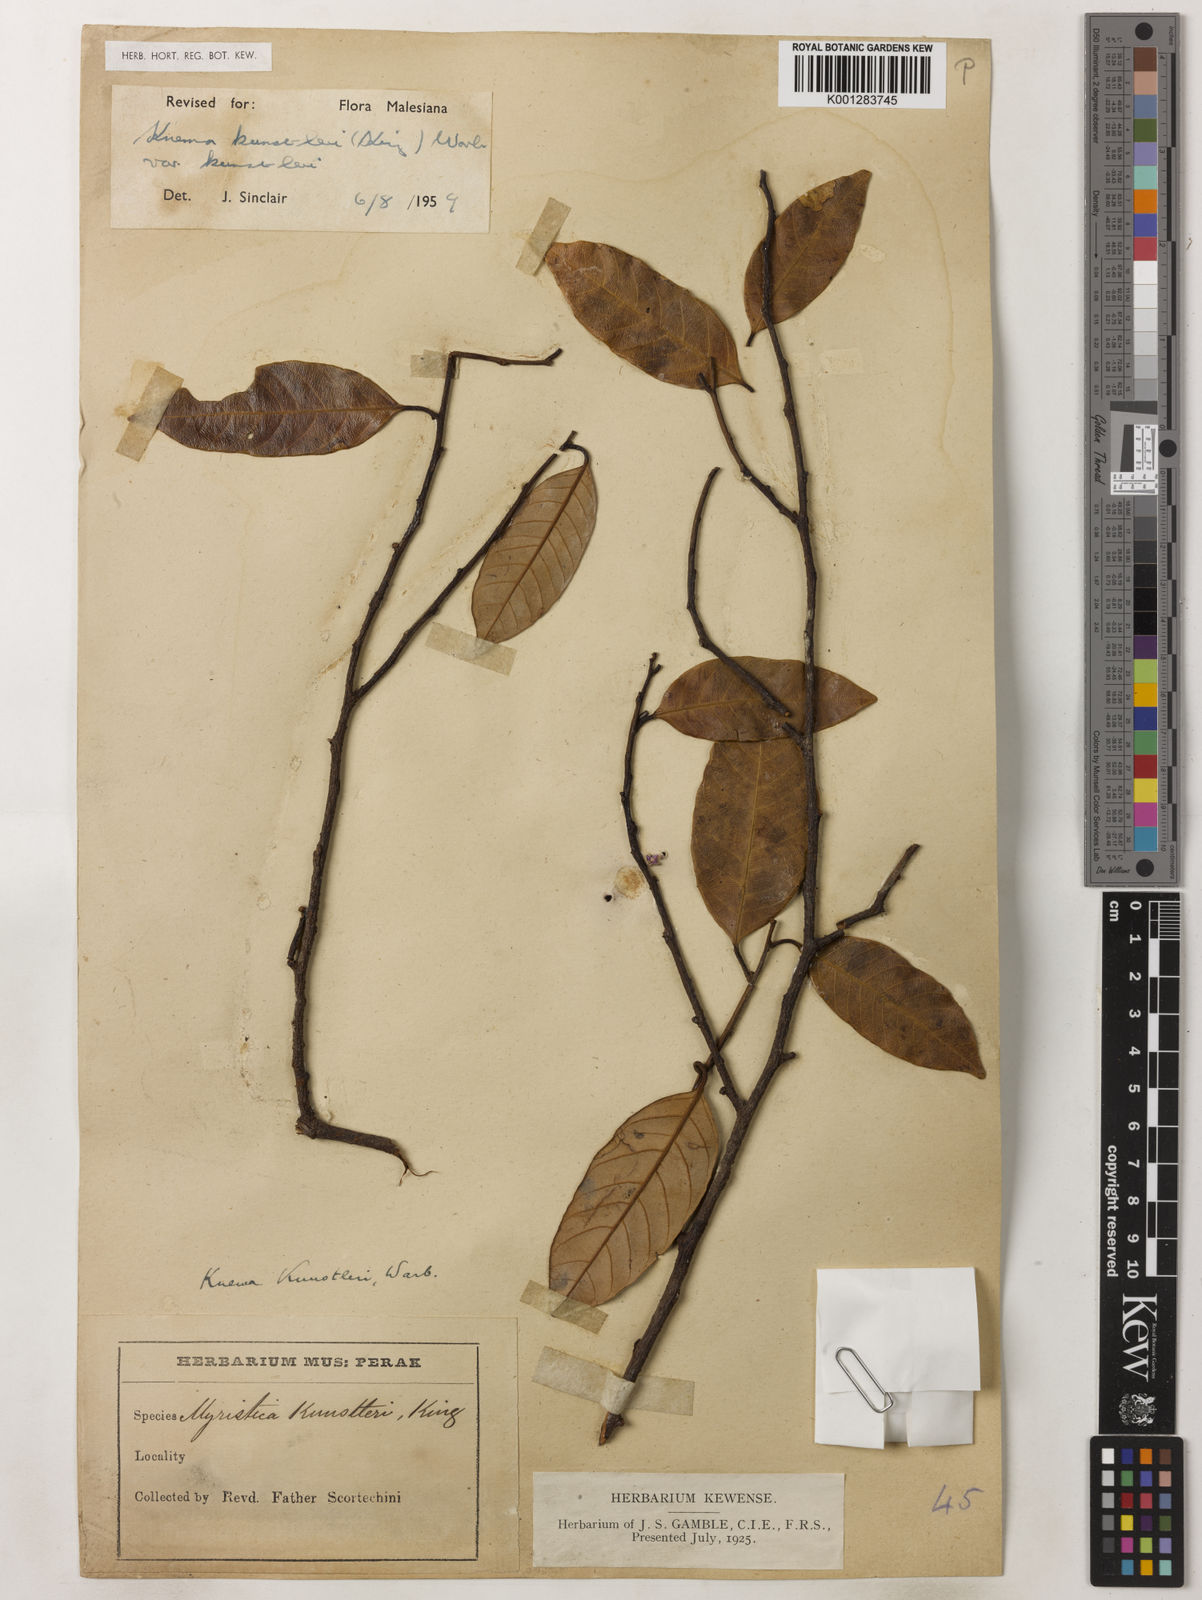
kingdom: Plantae
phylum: Tracheophyta
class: Magnoliopsida
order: Magnoliales
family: Myristicaceae
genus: Knema
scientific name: Knema kunstleri
